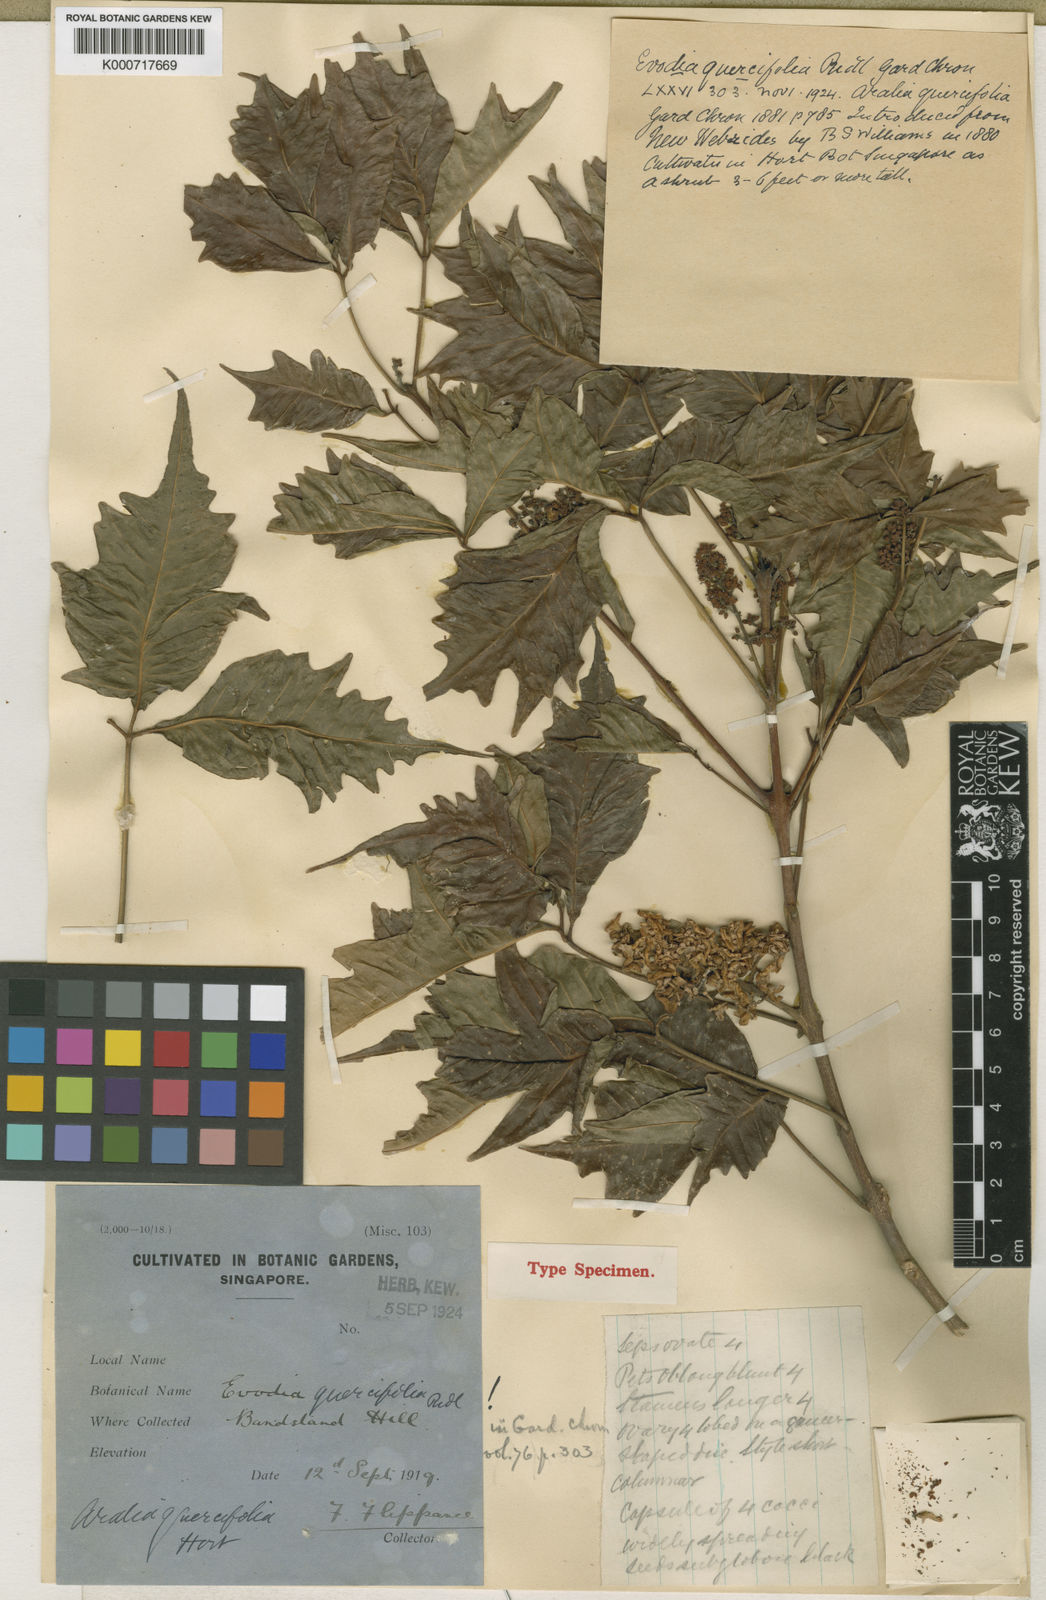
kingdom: Plantae
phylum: Tracheophyta
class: Magnoliopsida
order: Sapindales
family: Rutaceae
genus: Melicope
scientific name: Melicope denhamii
